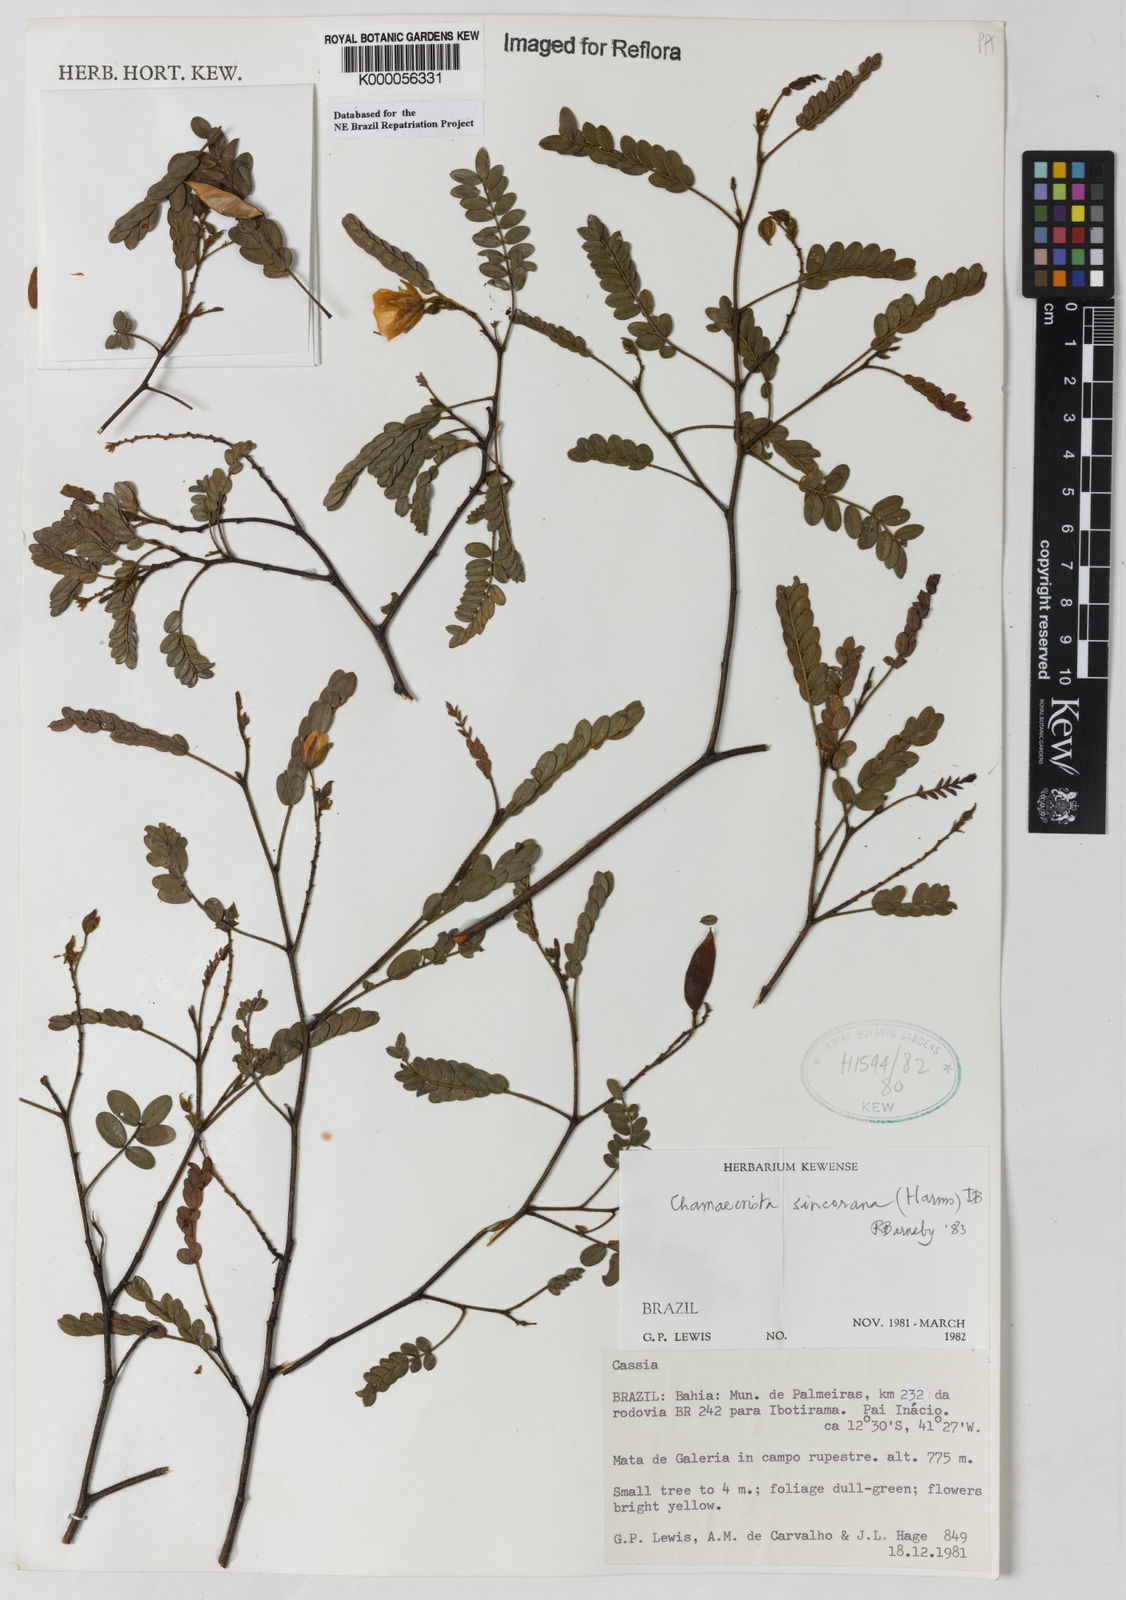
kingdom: Plantae
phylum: Tracheophyta
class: Magnoliopsida
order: Fabales
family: Fabaceae
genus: Chamaecrista
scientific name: Chamaecrista sincorana
